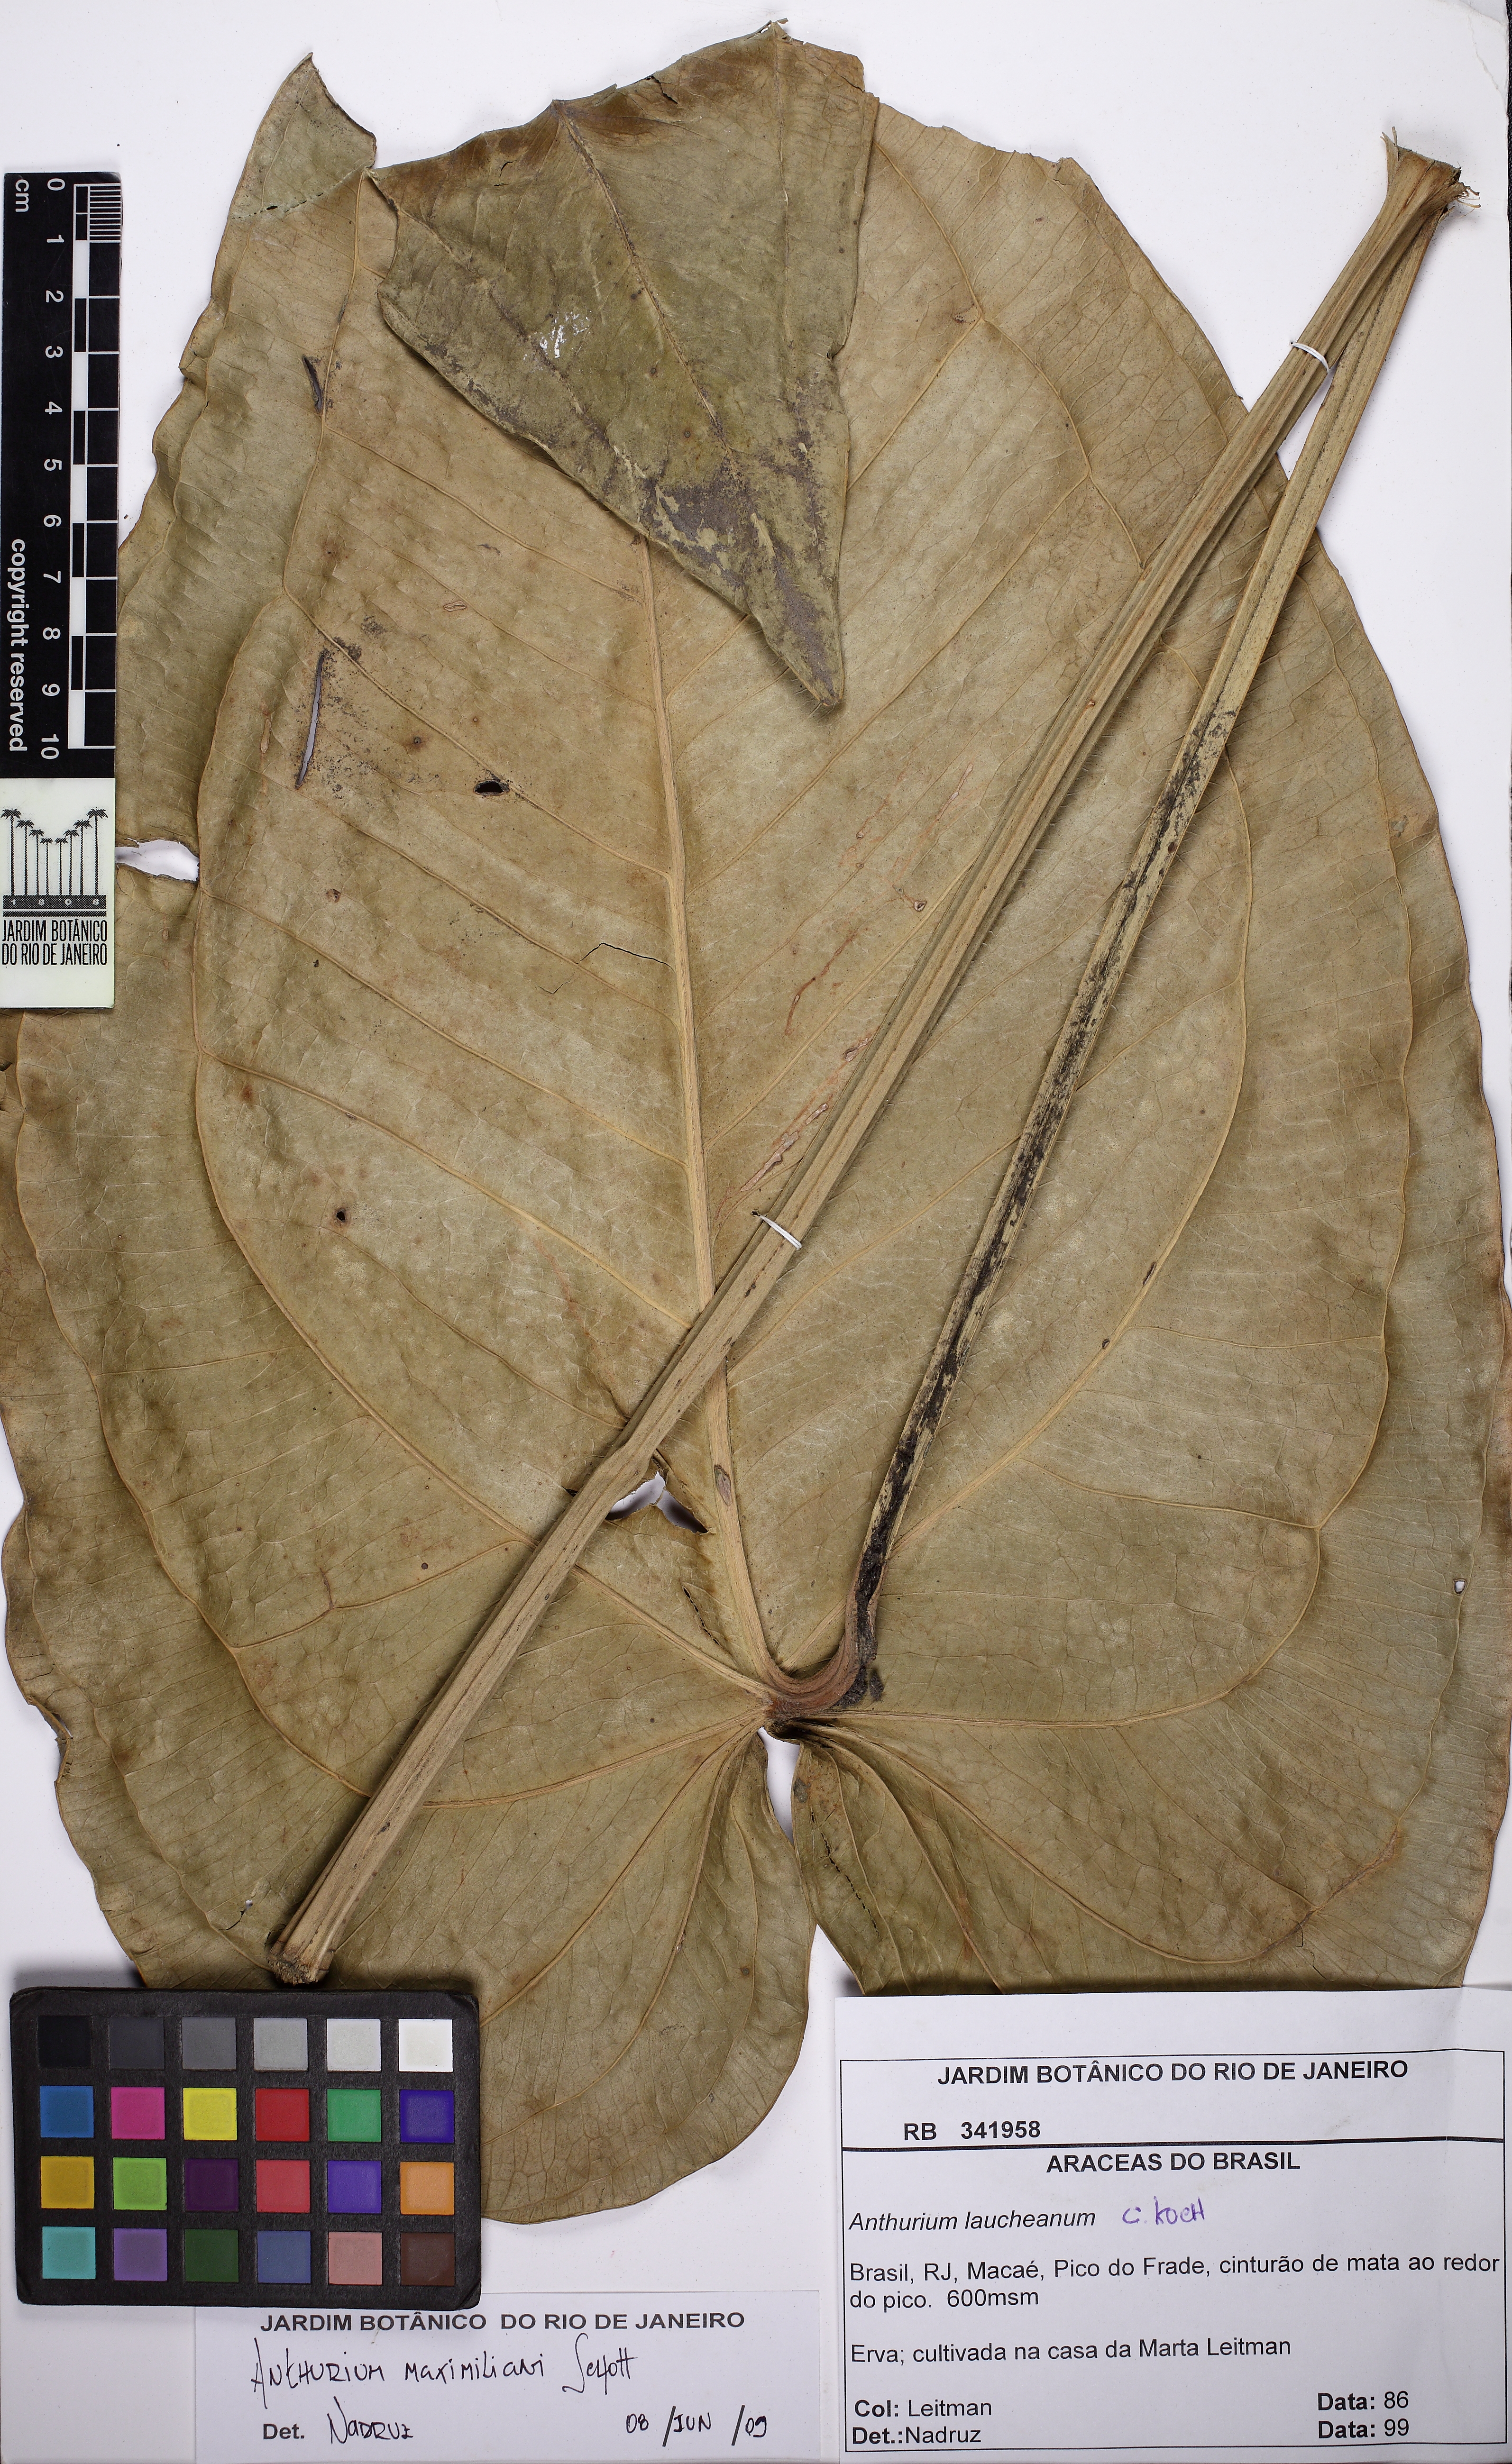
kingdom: Plantae
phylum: Tracheophyta
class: Liliopsida
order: Alismatales
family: Araceae
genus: Anthurium
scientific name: Anthurium augustinum
